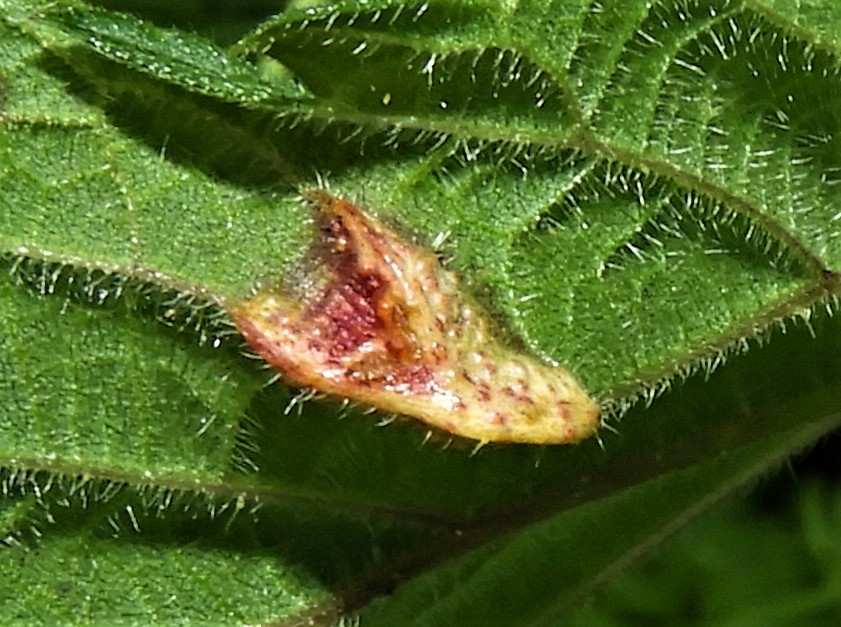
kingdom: Fungi
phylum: Basidiomycota
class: Pucciniomycetes
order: Pucciniales
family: Pucciniaceae
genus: Puccinia
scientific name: Puccinia urticata
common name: nældegalle-tvecellerust
